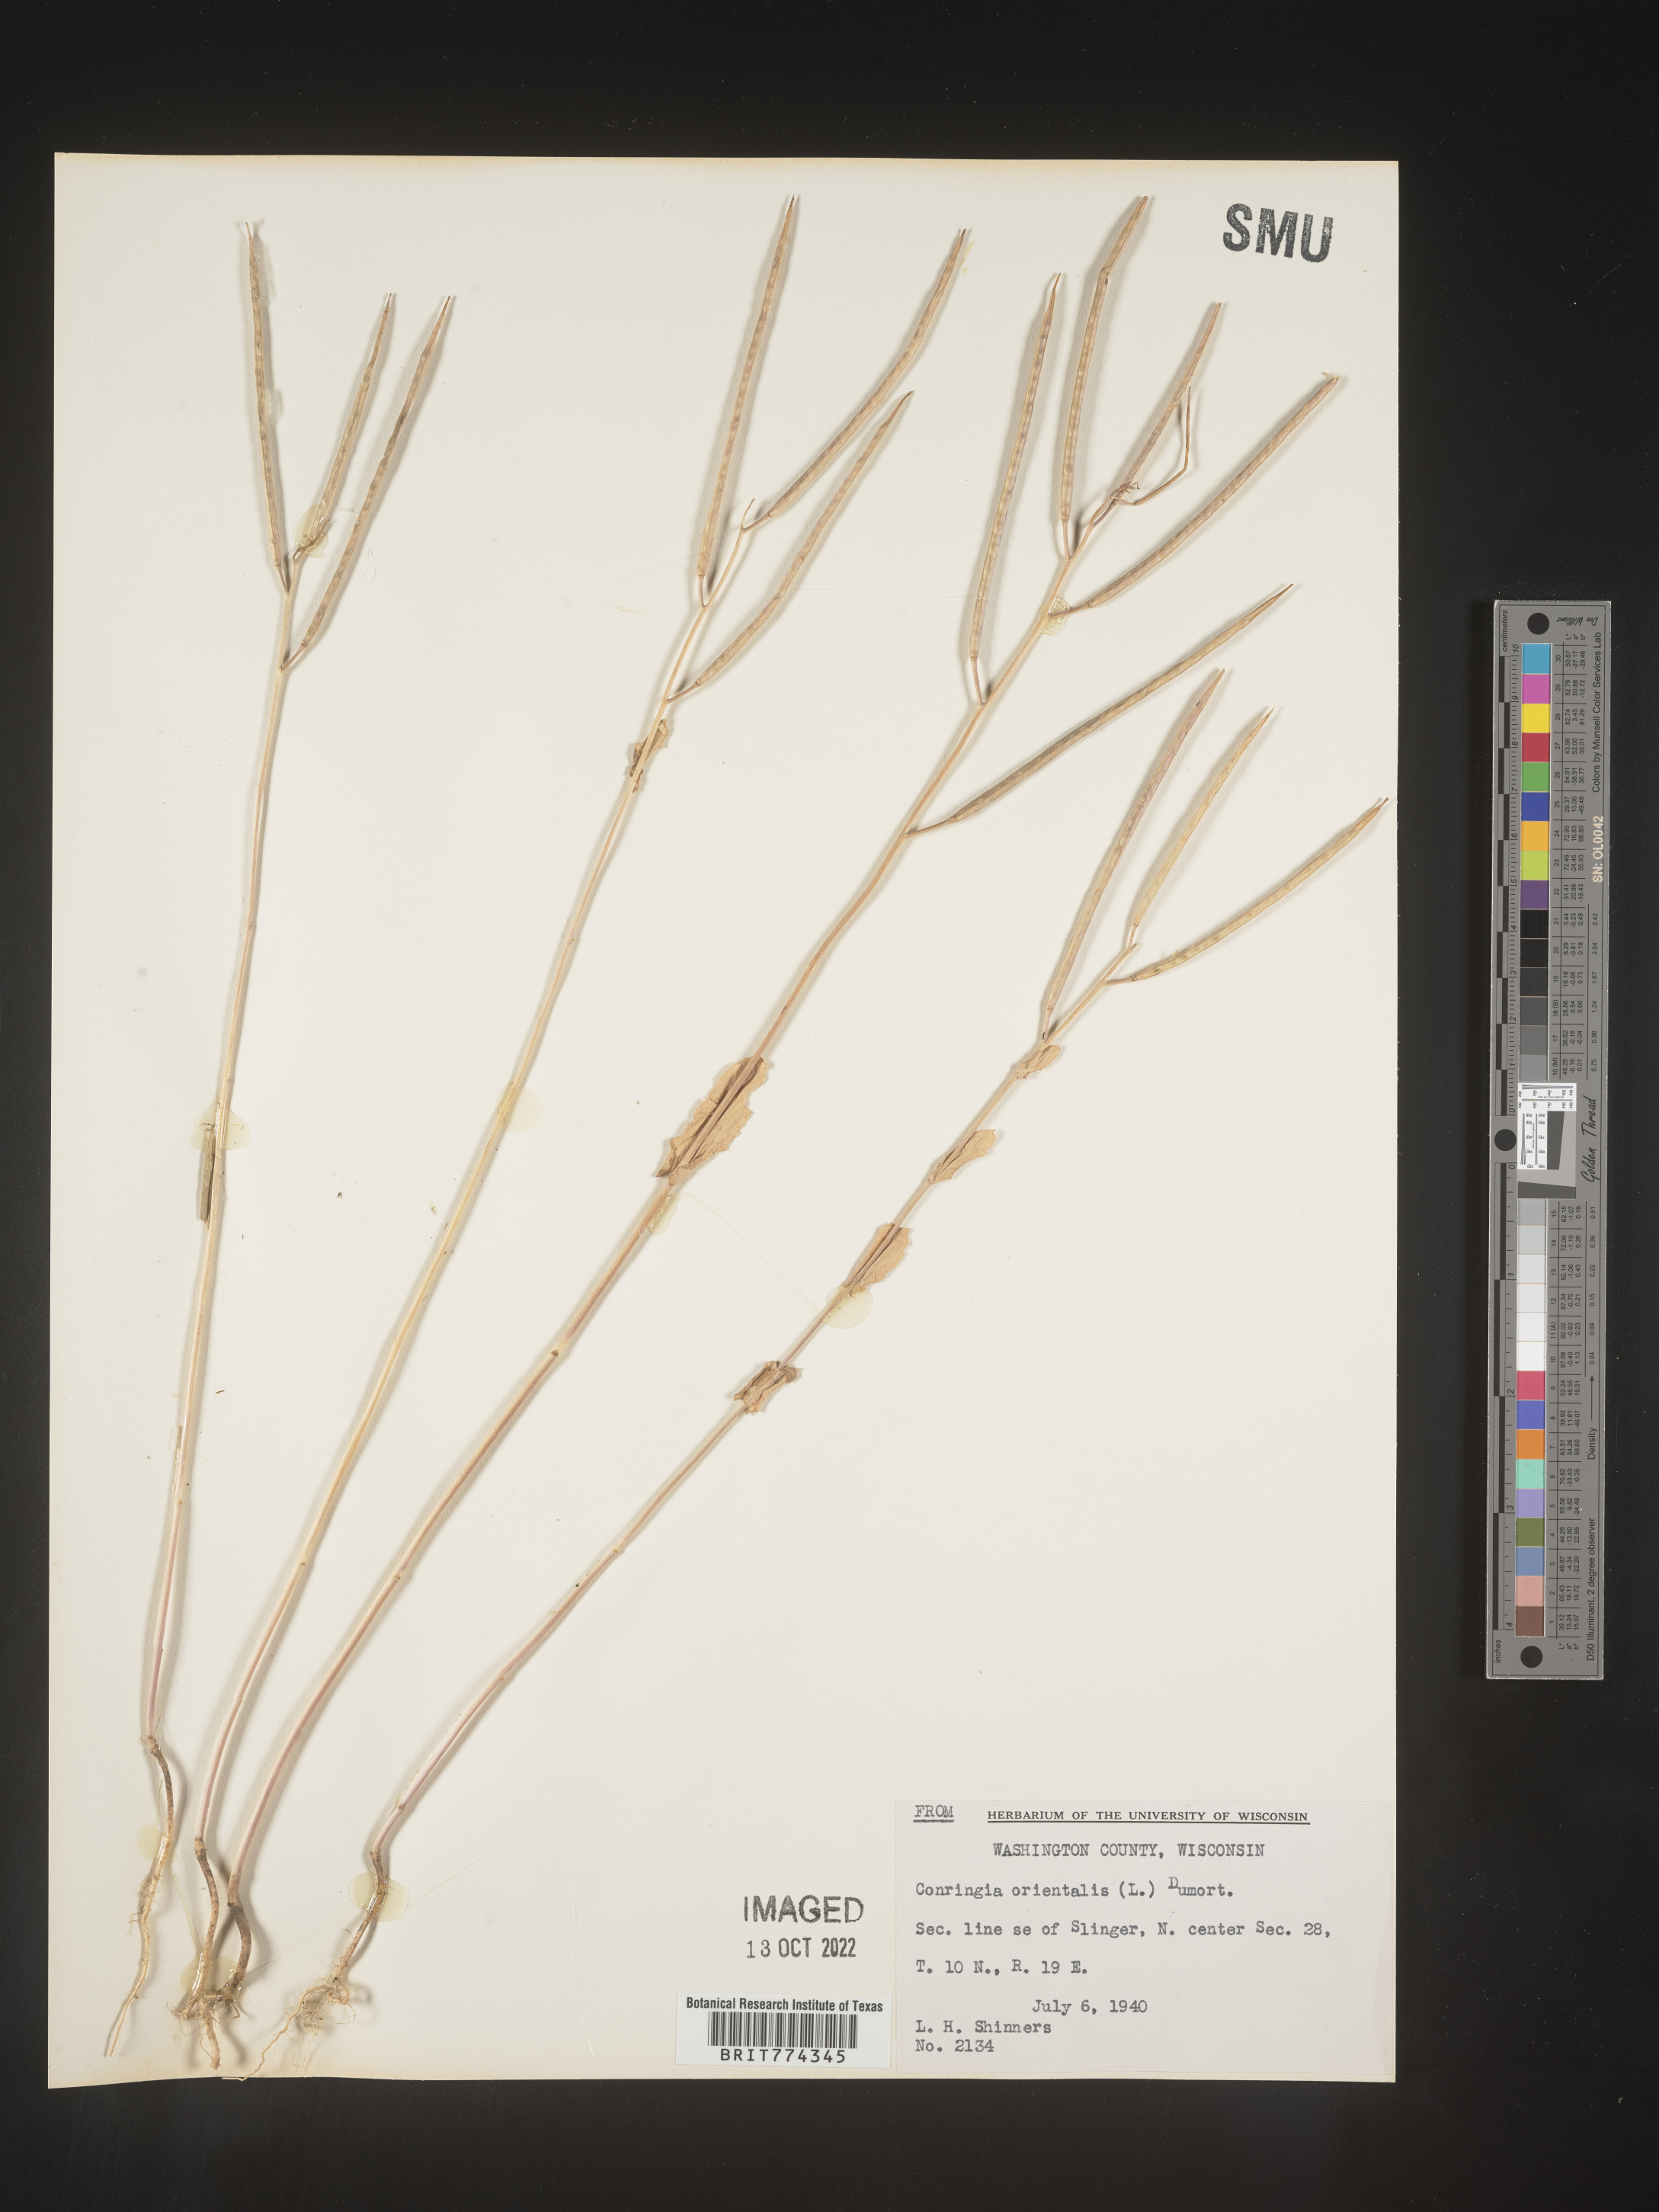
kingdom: Plantae
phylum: Tracheophyta
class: Magnoliopsida
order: Brassicales
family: Brassicaceae
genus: Conringia
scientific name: Conringia
